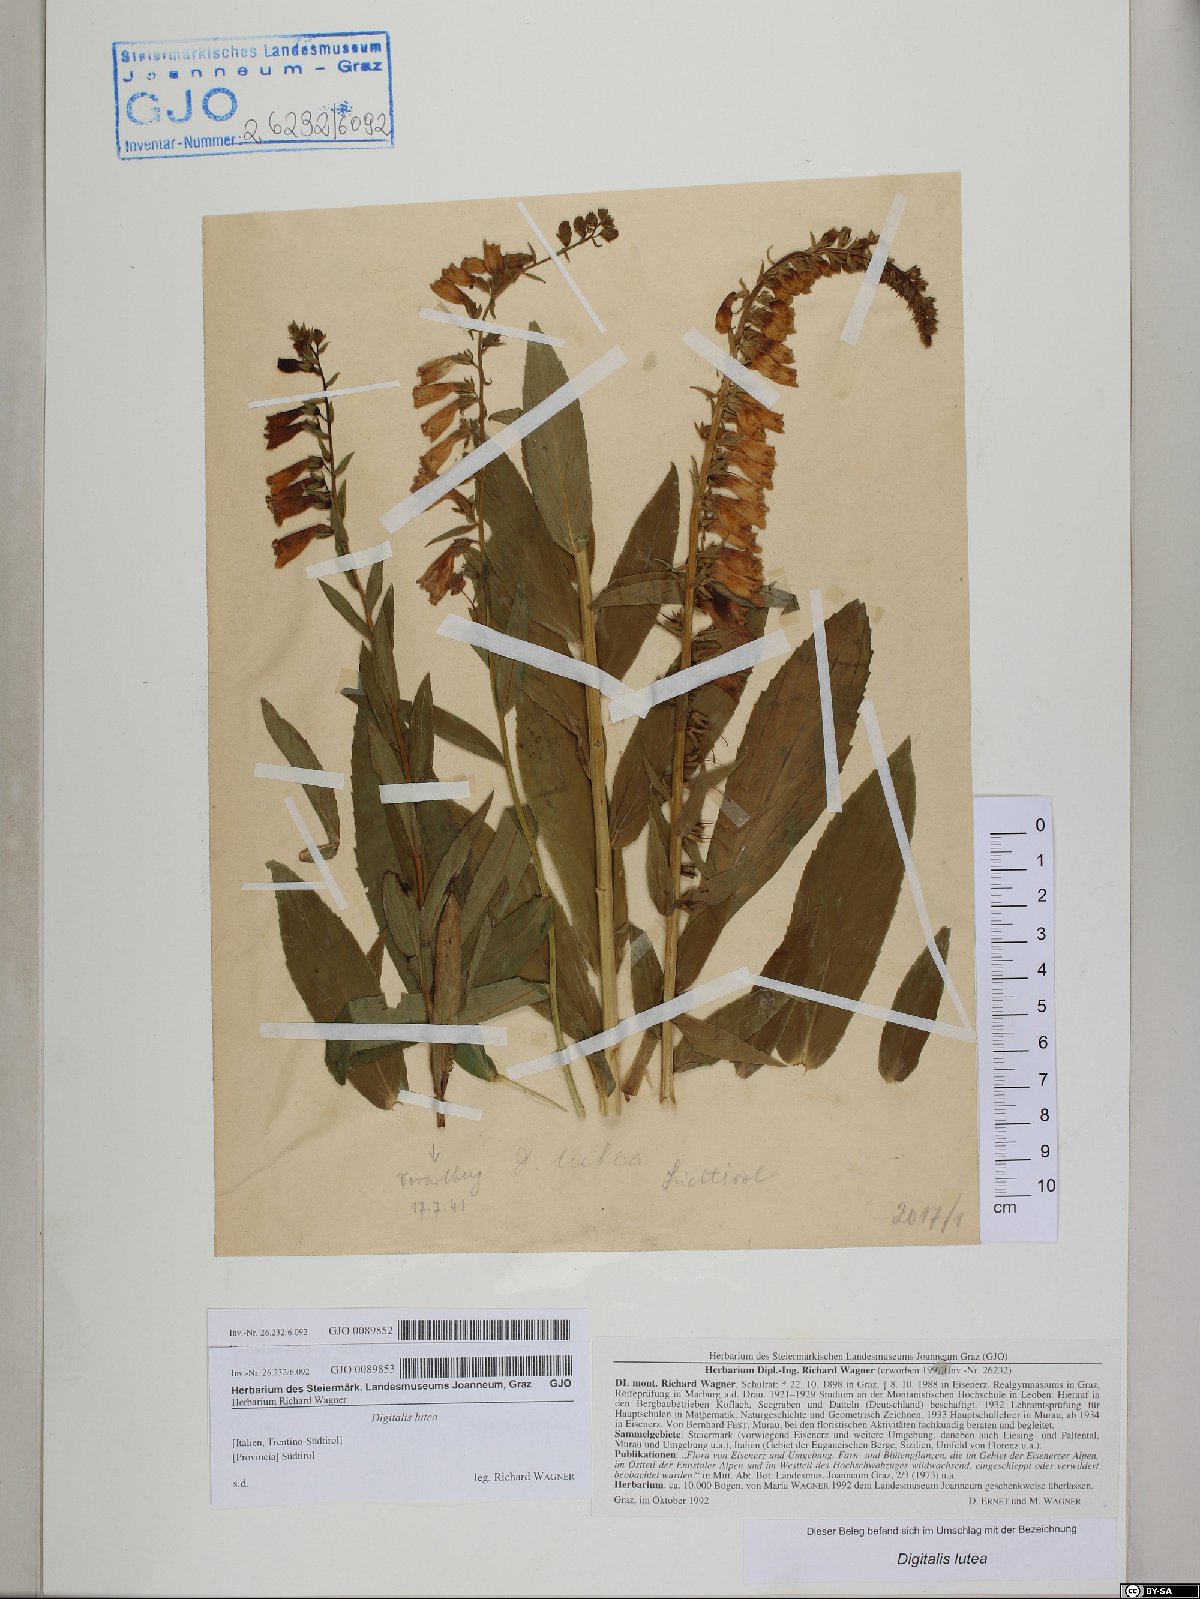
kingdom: Plantae
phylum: Tracheophyta
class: Magnoliopsida
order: Lamiales
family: Plantaginaceae
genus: Digitalis
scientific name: Digitalis lutea
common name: Straw foxglove
